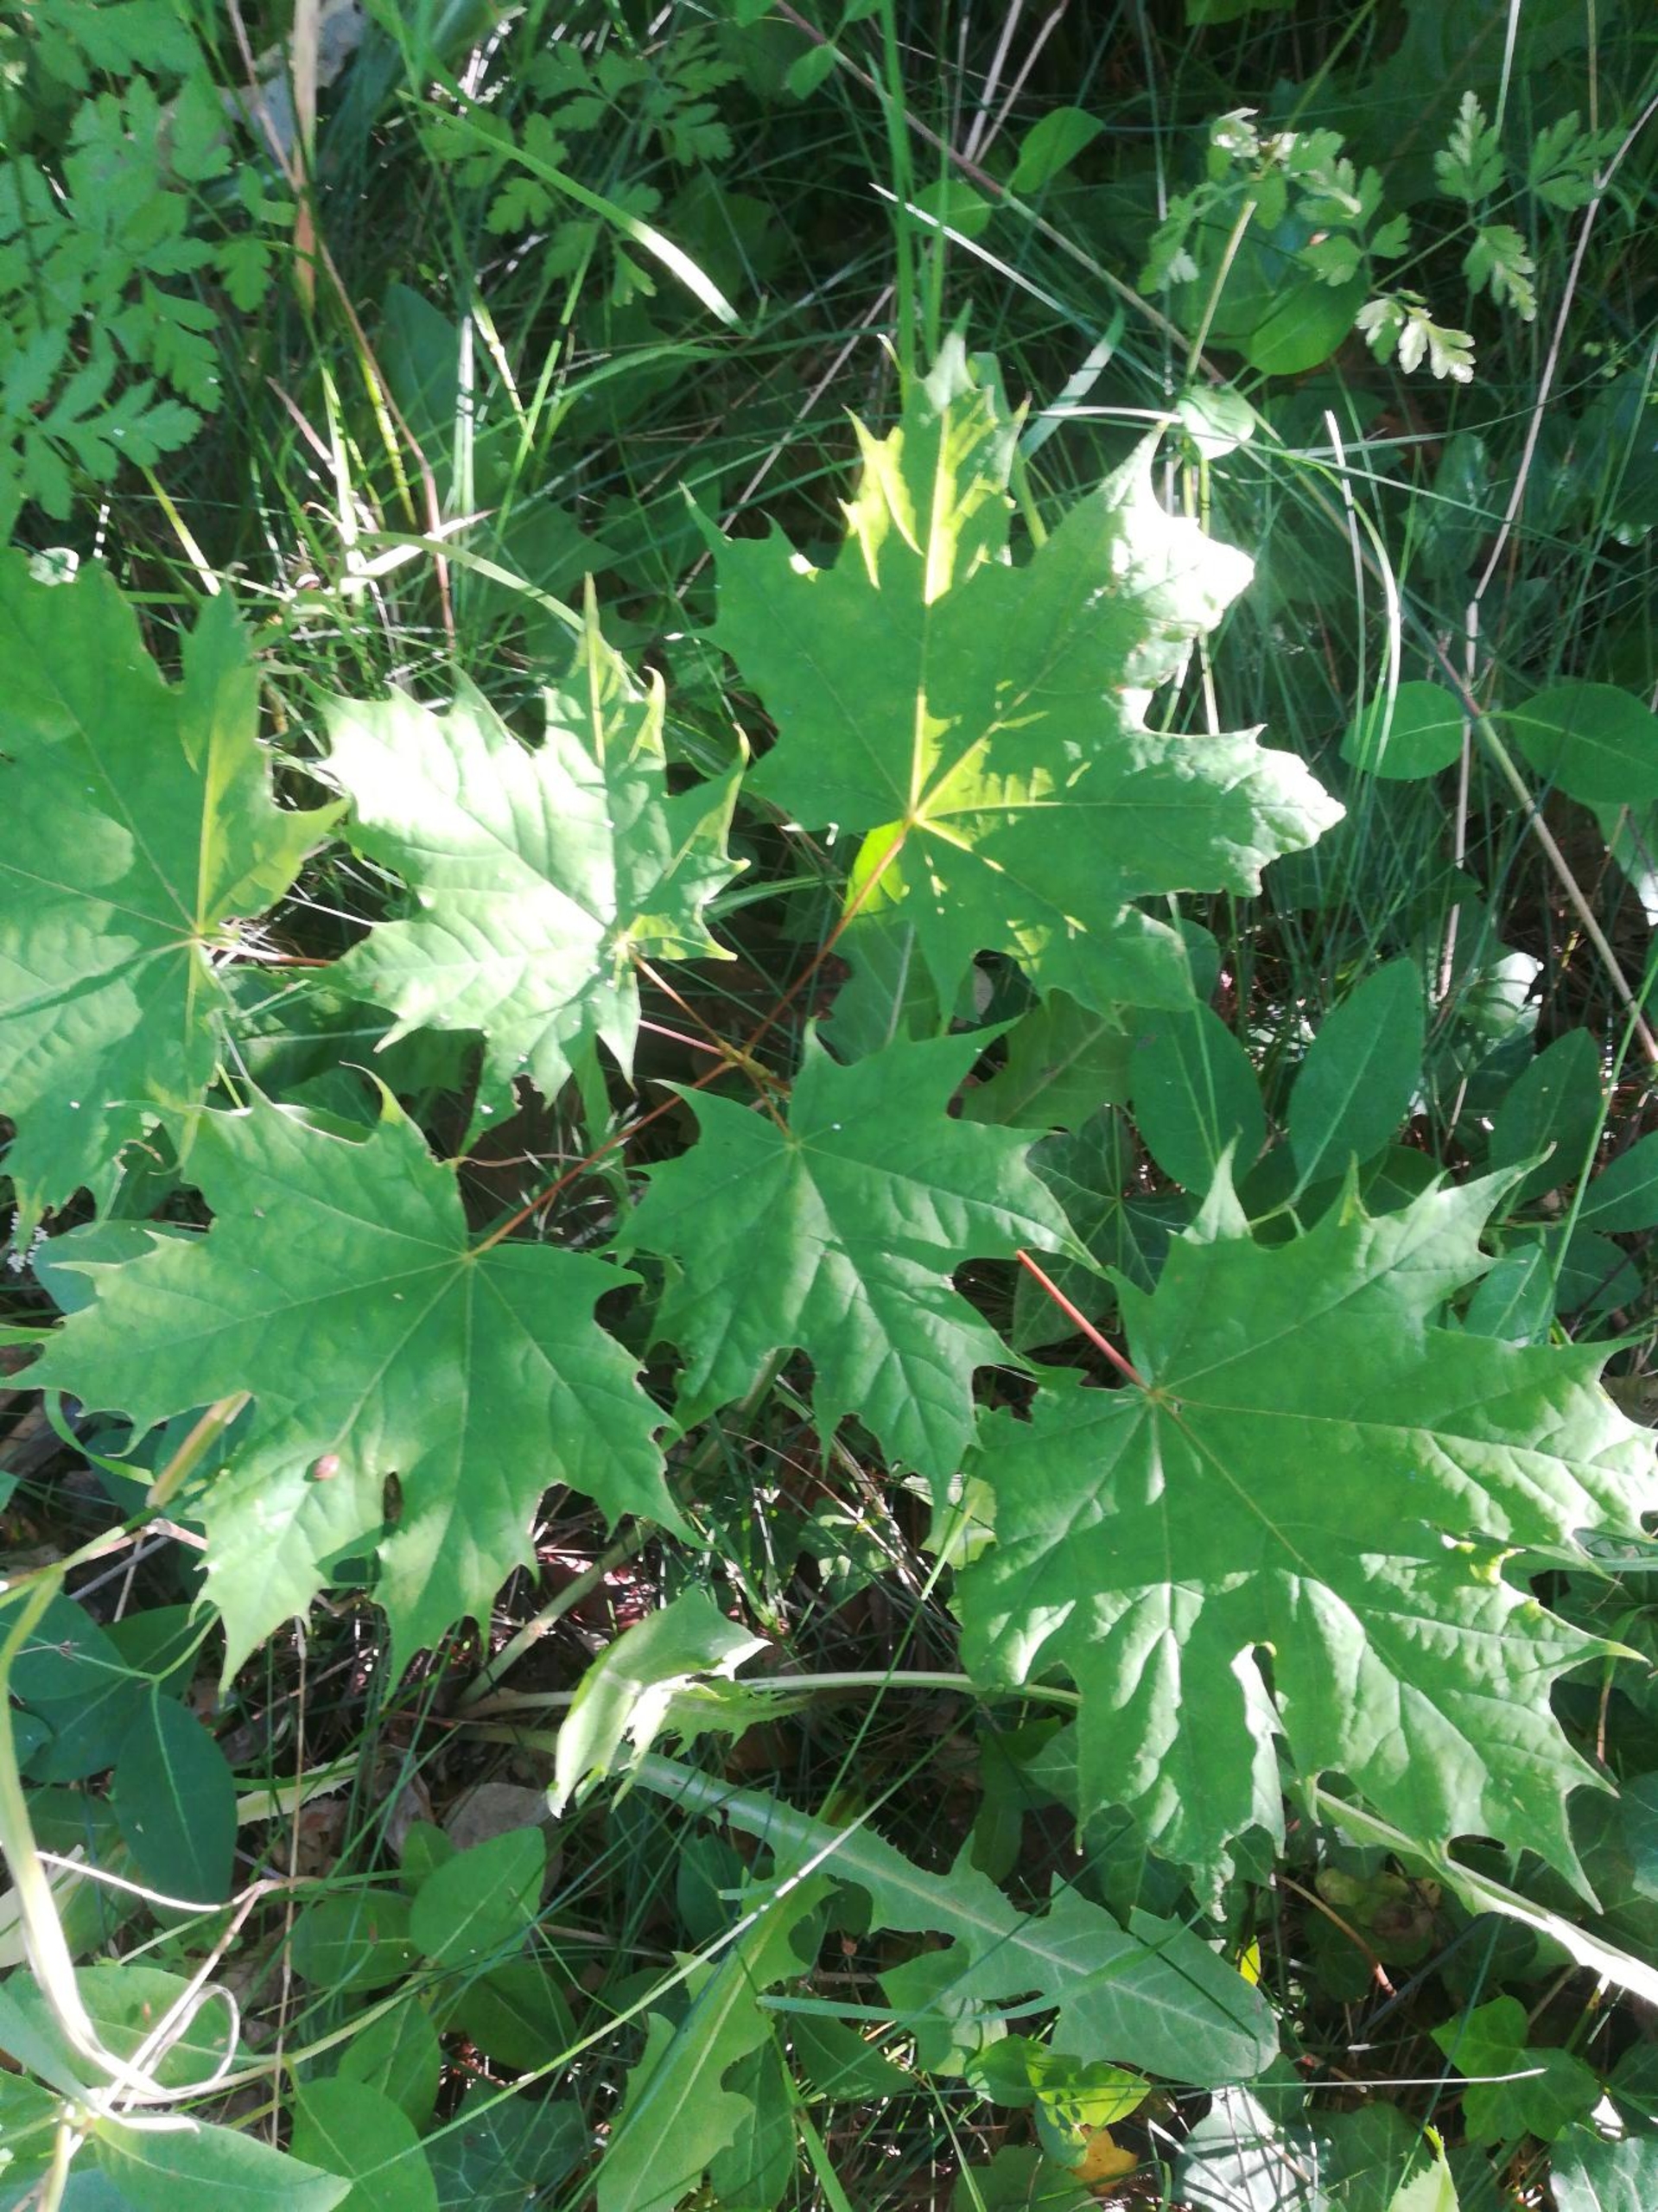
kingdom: Plantae
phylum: Tracheophyta
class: Magnoliopsida
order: Sapindales
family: Sapindaceae
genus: Acer
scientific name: Acer platanoides
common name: Spids-løn
